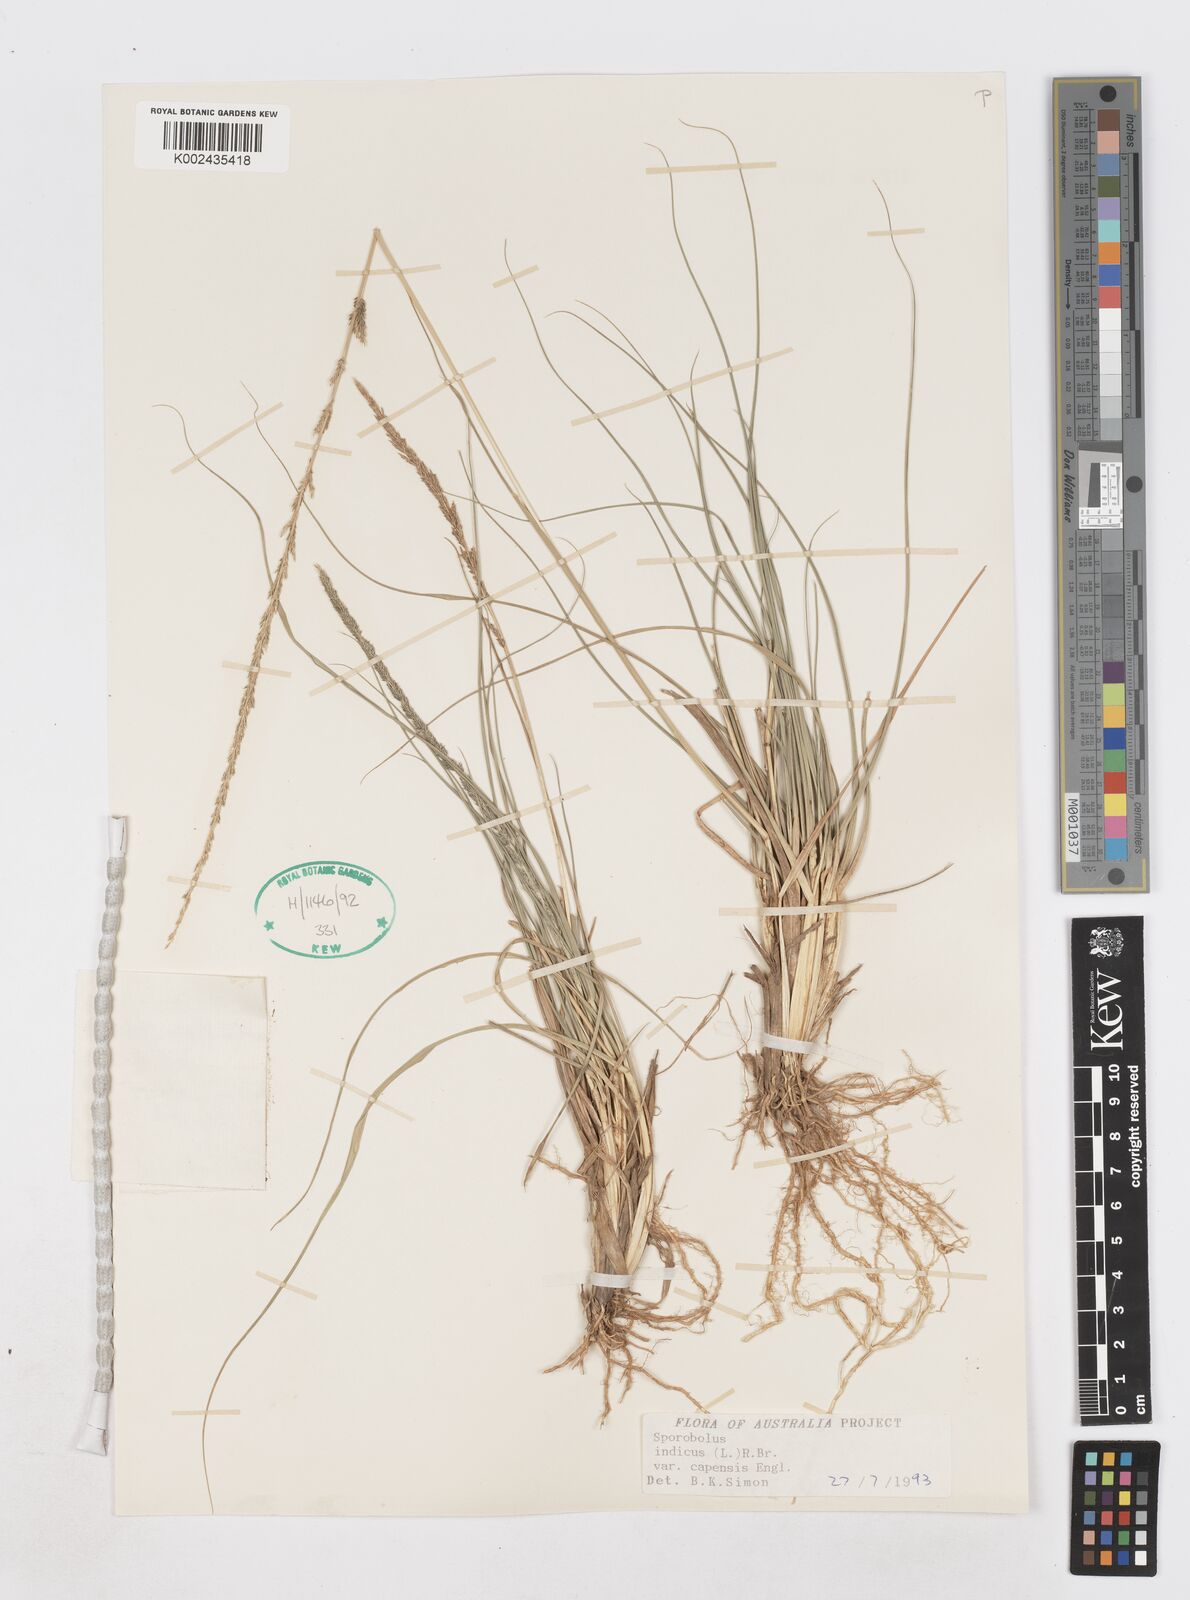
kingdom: Plantae
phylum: Tracheophyta
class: Liliopsida
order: Poales
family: Poaceae
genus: Sporobolus
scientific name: Sporobolus africanus
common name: African dropseed
